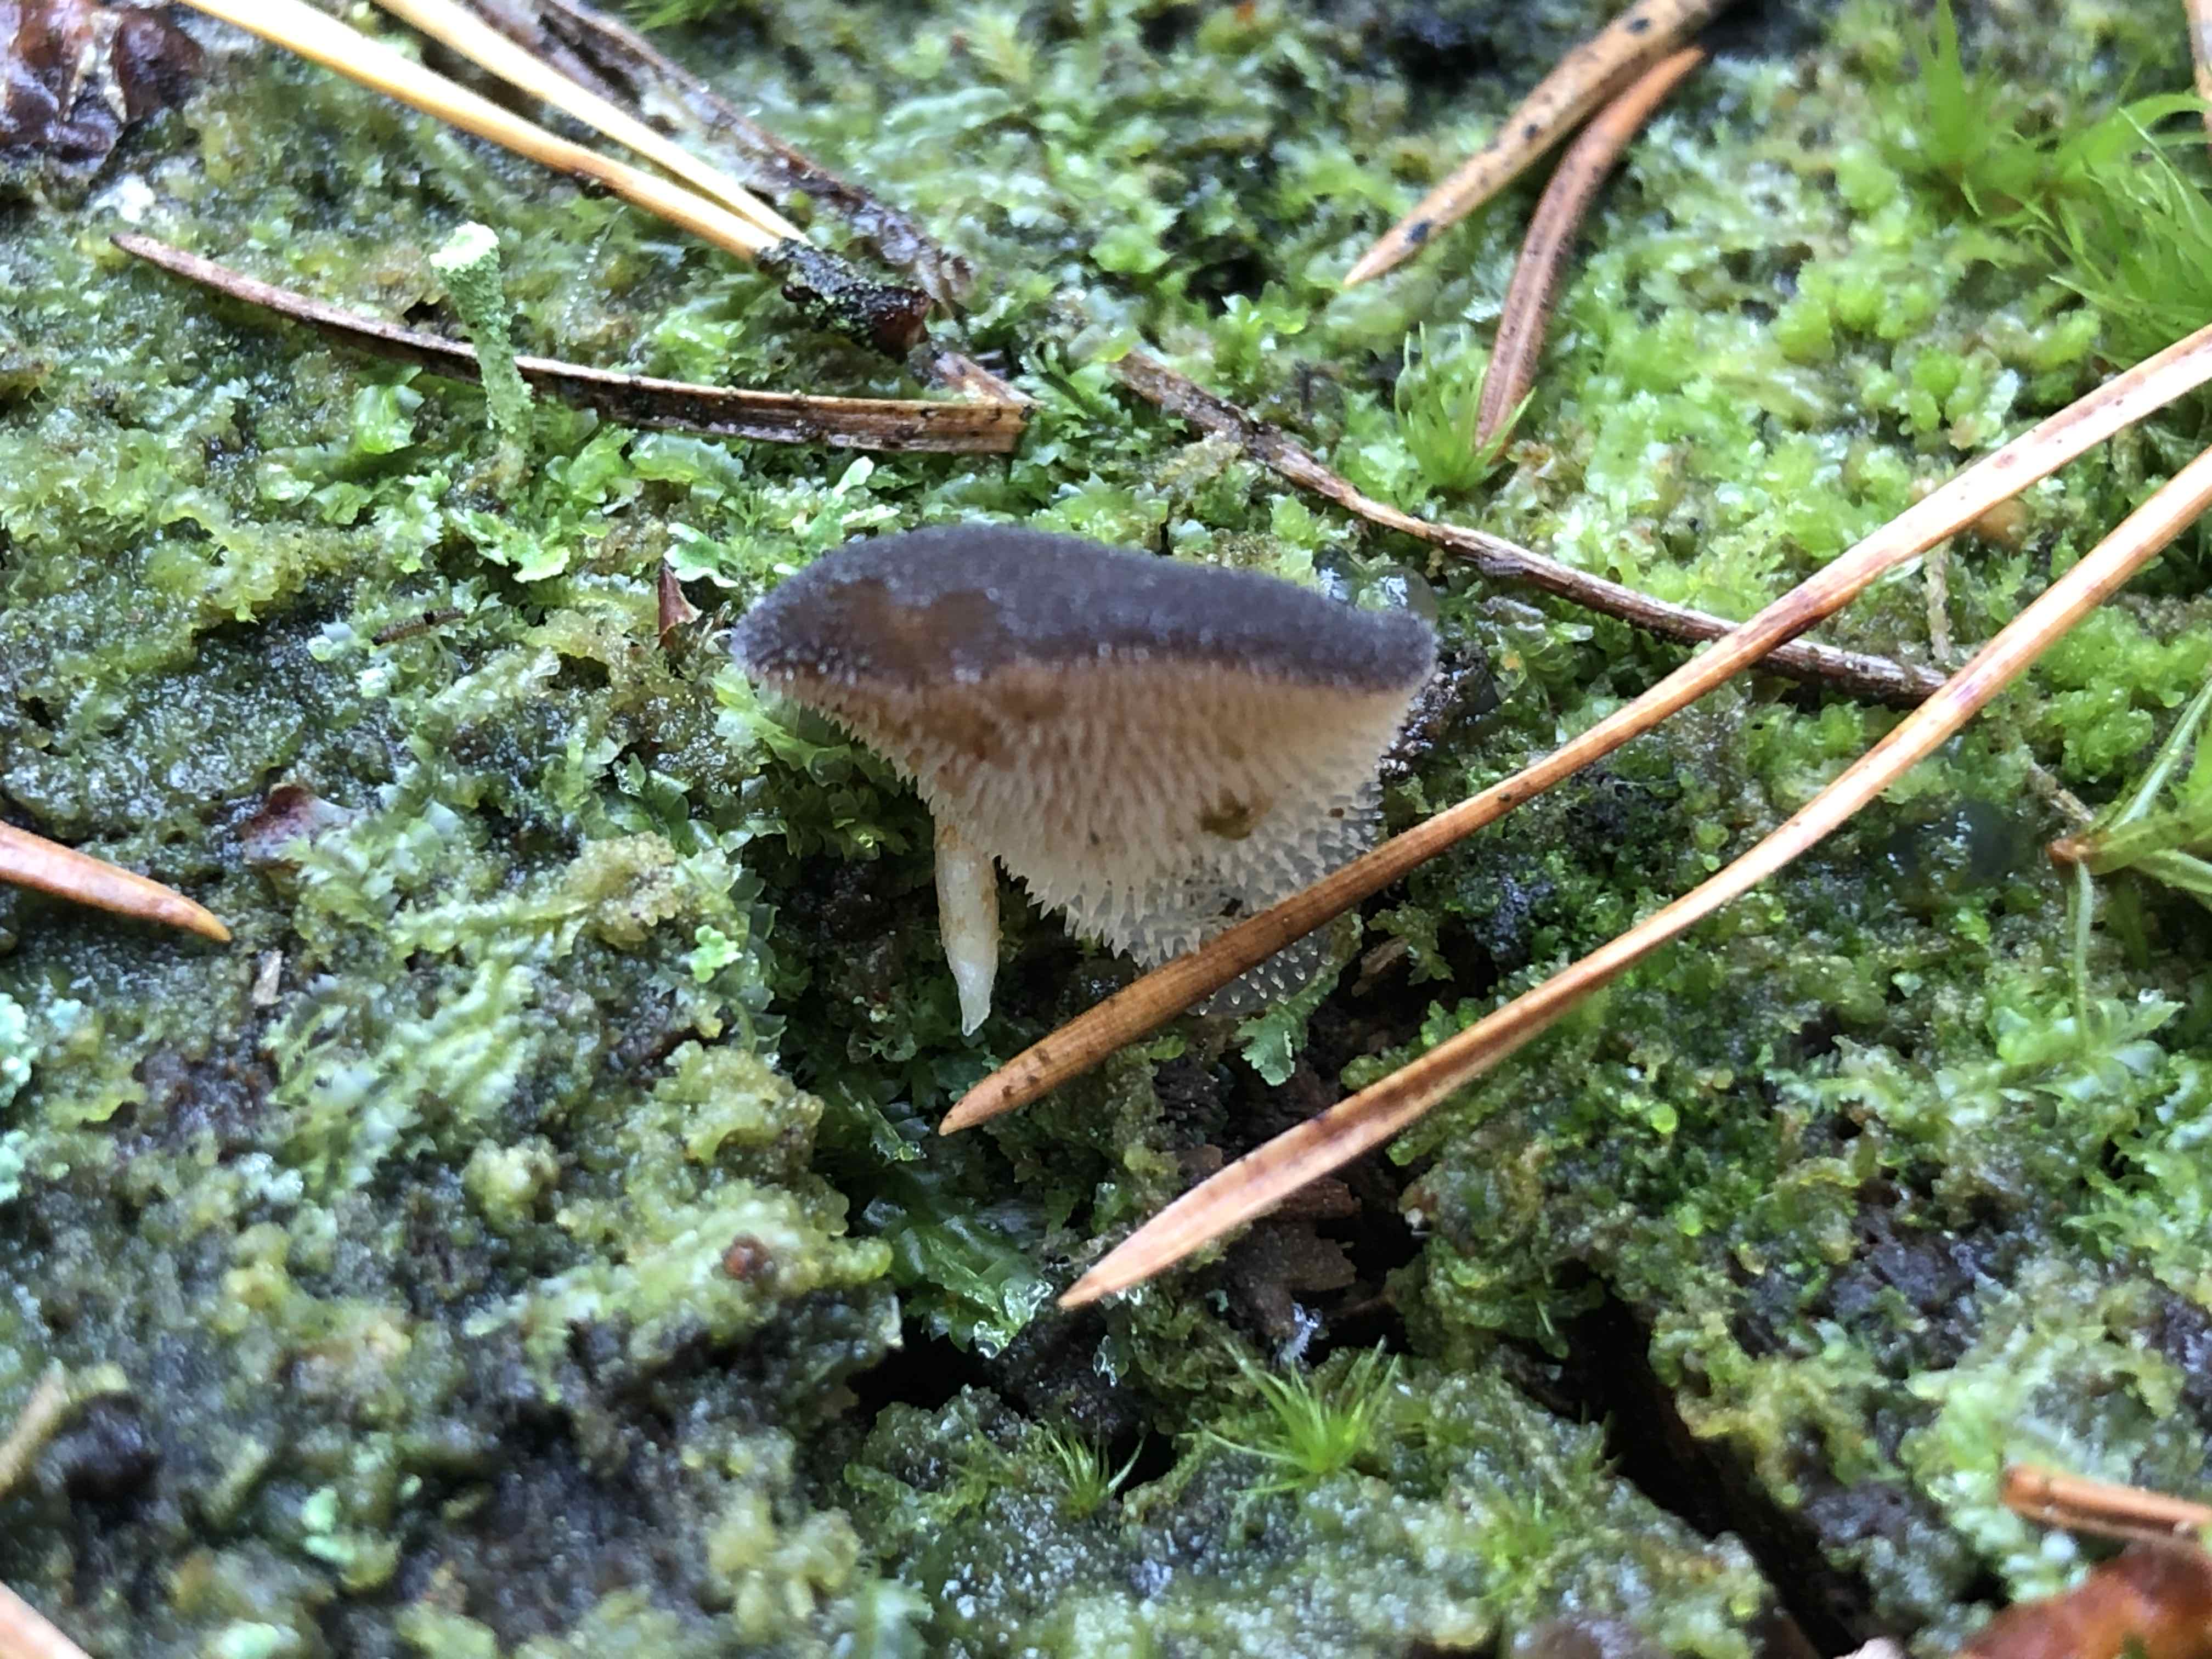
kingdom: Fungi
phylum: Basidiomycota
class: Agaricomycetes
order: Auriculariales
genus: Pseudohydnum
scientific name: Pseudohydnum gelatinosum
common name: bævretand
